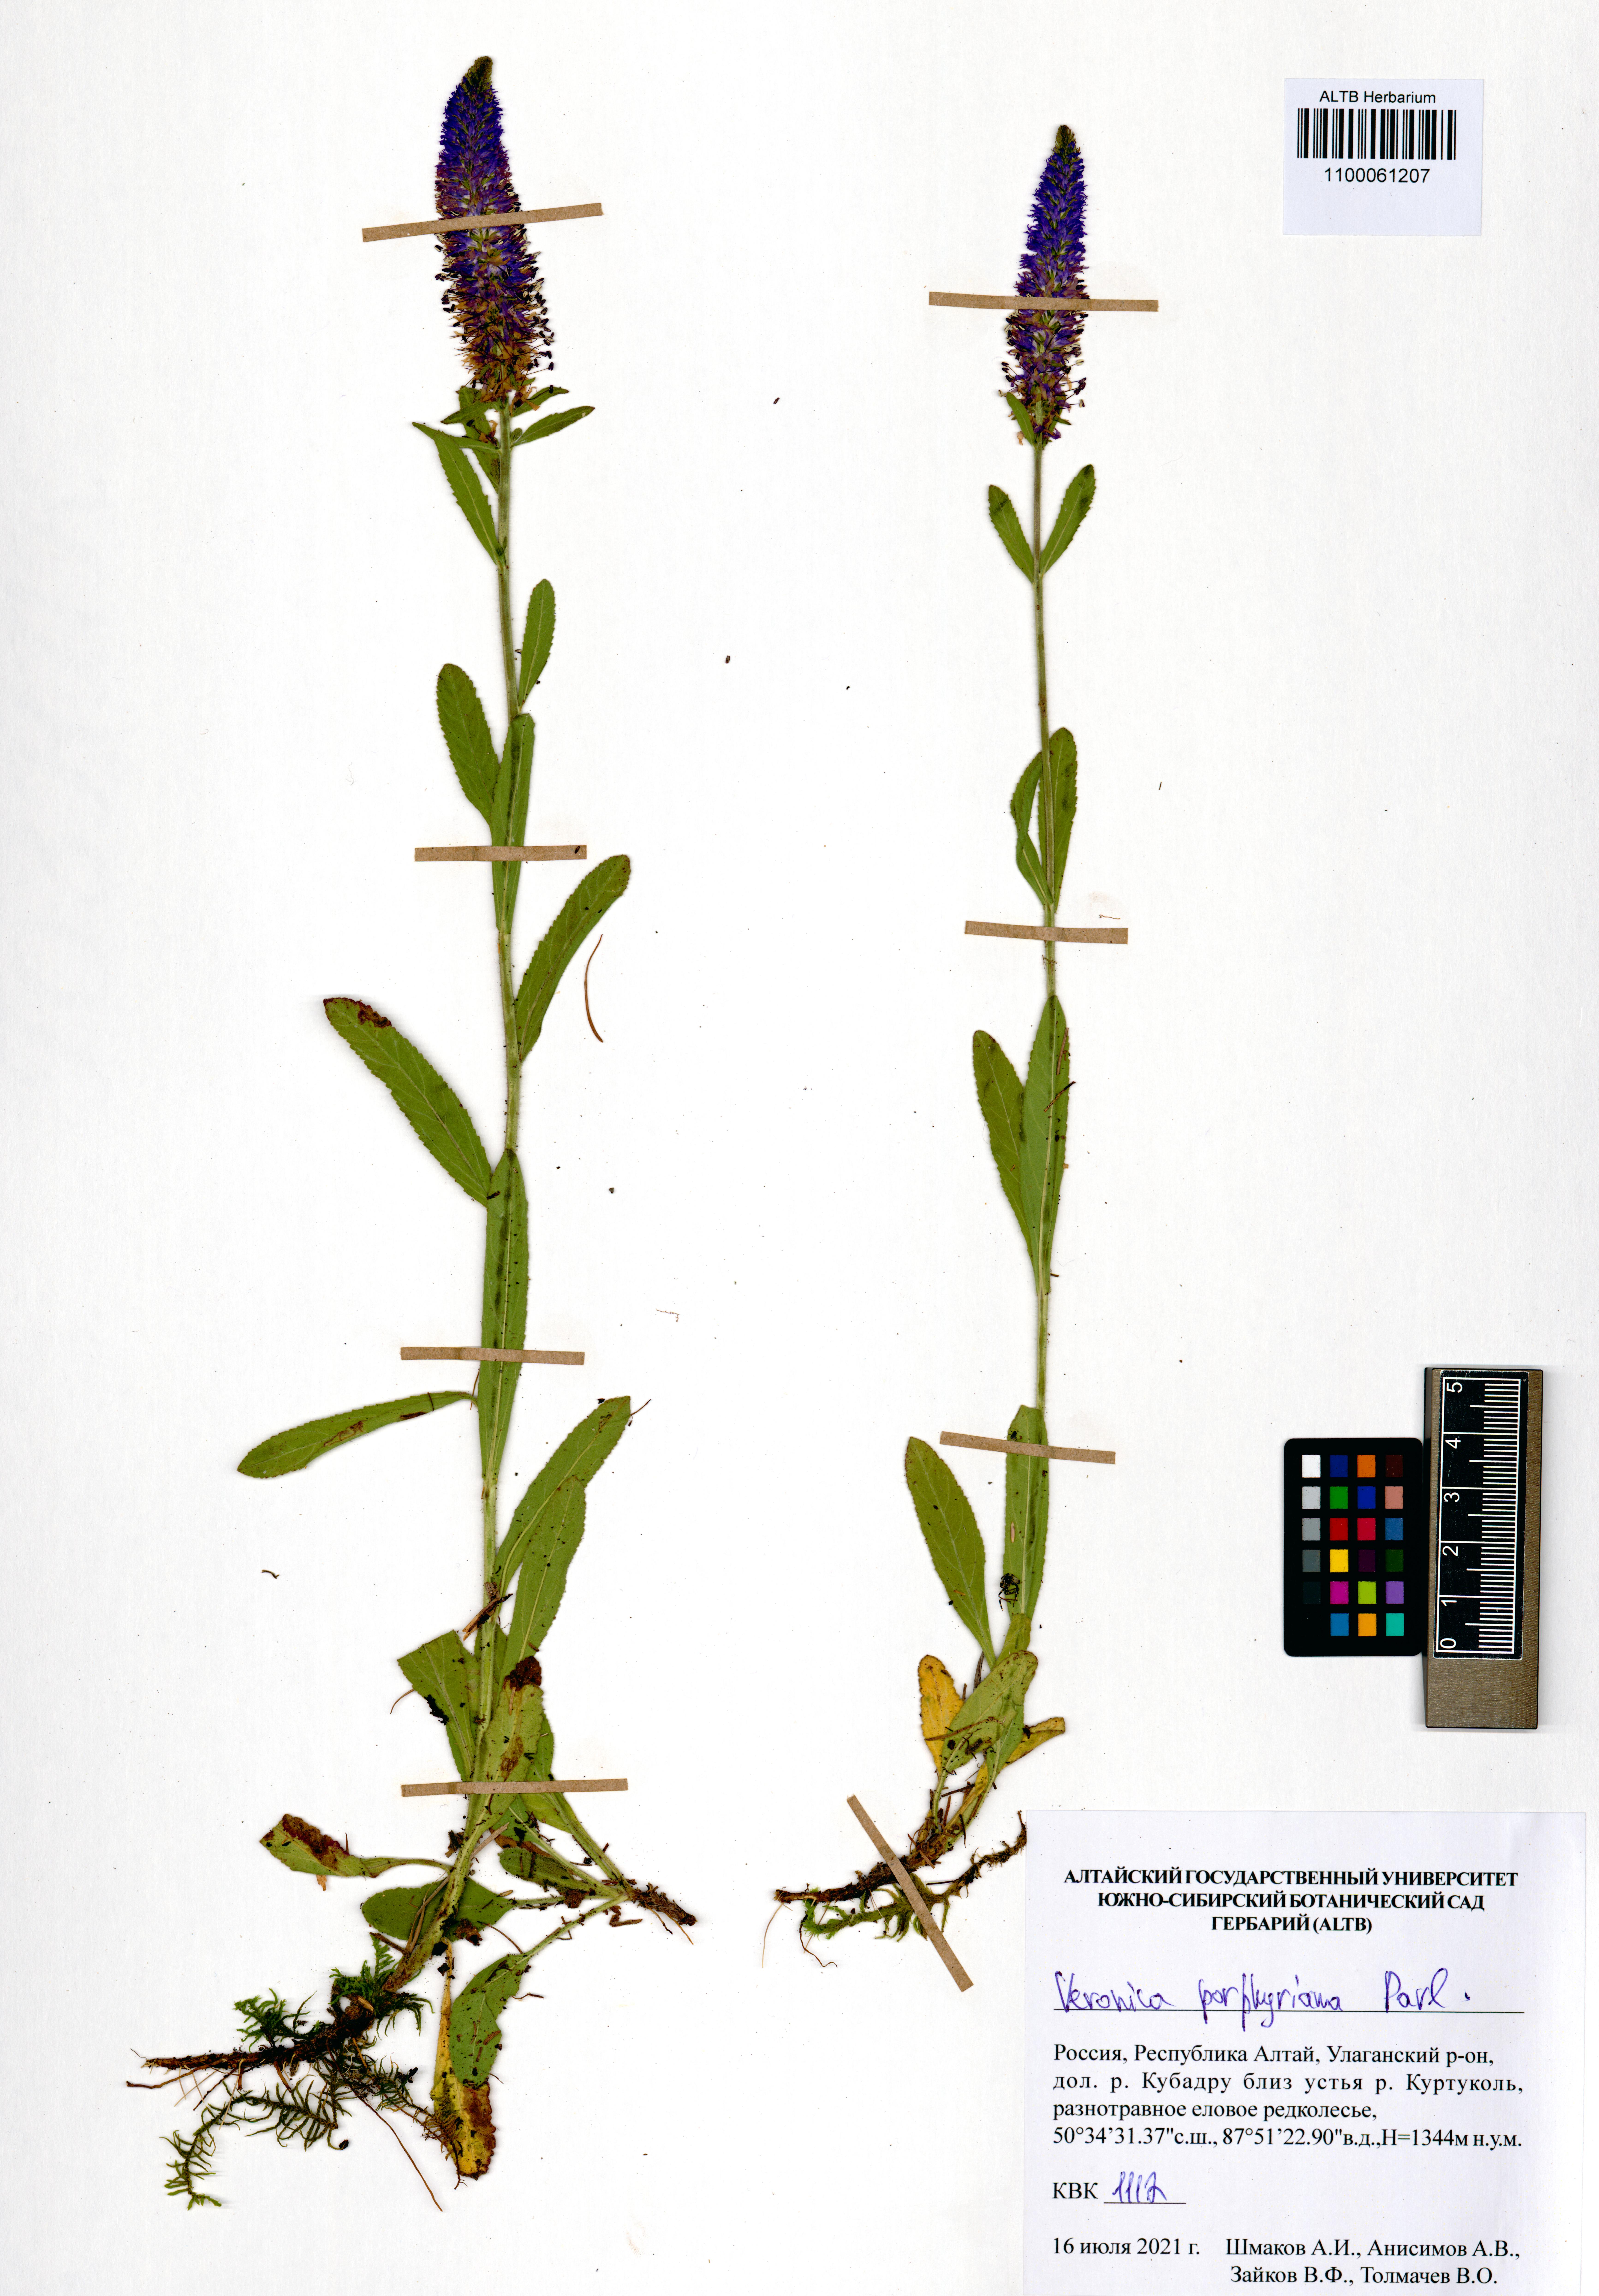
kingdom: Plantae
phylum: Tracheophyta
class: Magnoliopsida
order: Lamiales
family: Plantaginaceae
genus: Veronica
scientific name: Veronica porphyriana
